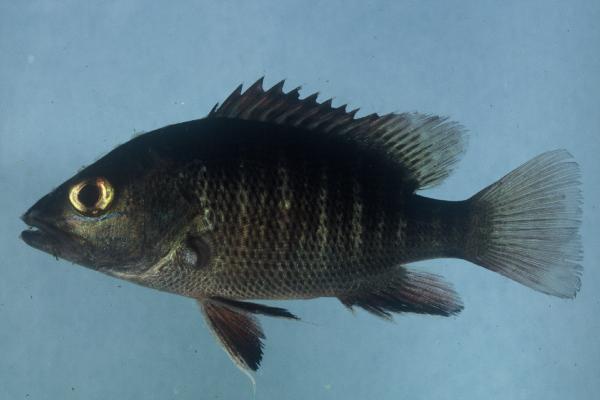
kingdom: Animalia
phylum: Chordata
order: Perciformes
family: Lutjanidae
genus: Lutjanus
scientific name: Lutjanus argentimaculatus
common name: Mangrove red snapper
